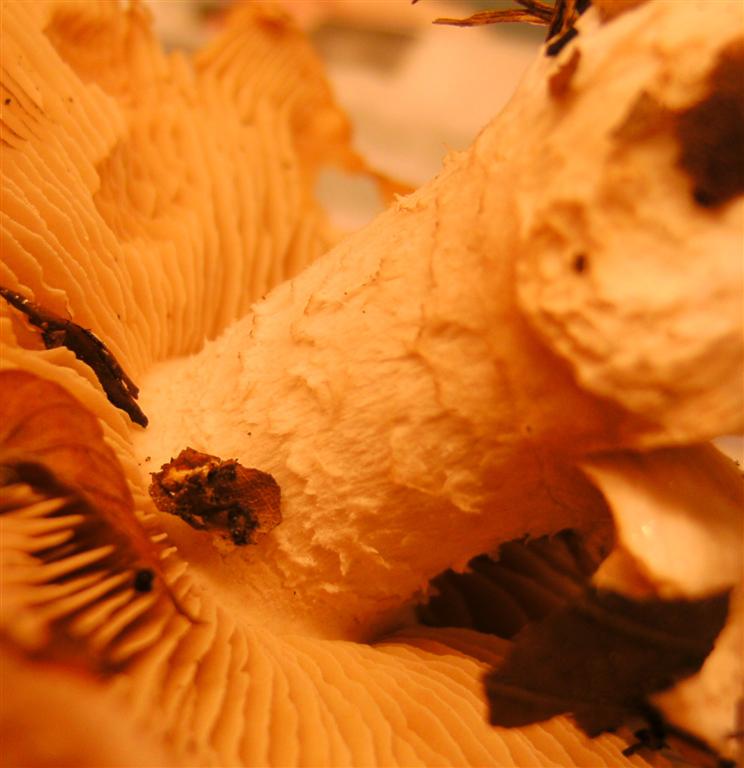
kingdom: Fungi
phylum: Basidiomycota
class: Agaricomycetes
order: Agaricales
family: Hymenogastraceae
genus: Hebeloma
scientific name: Hebeloma sinapizans
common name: ræddike-tåreblad
